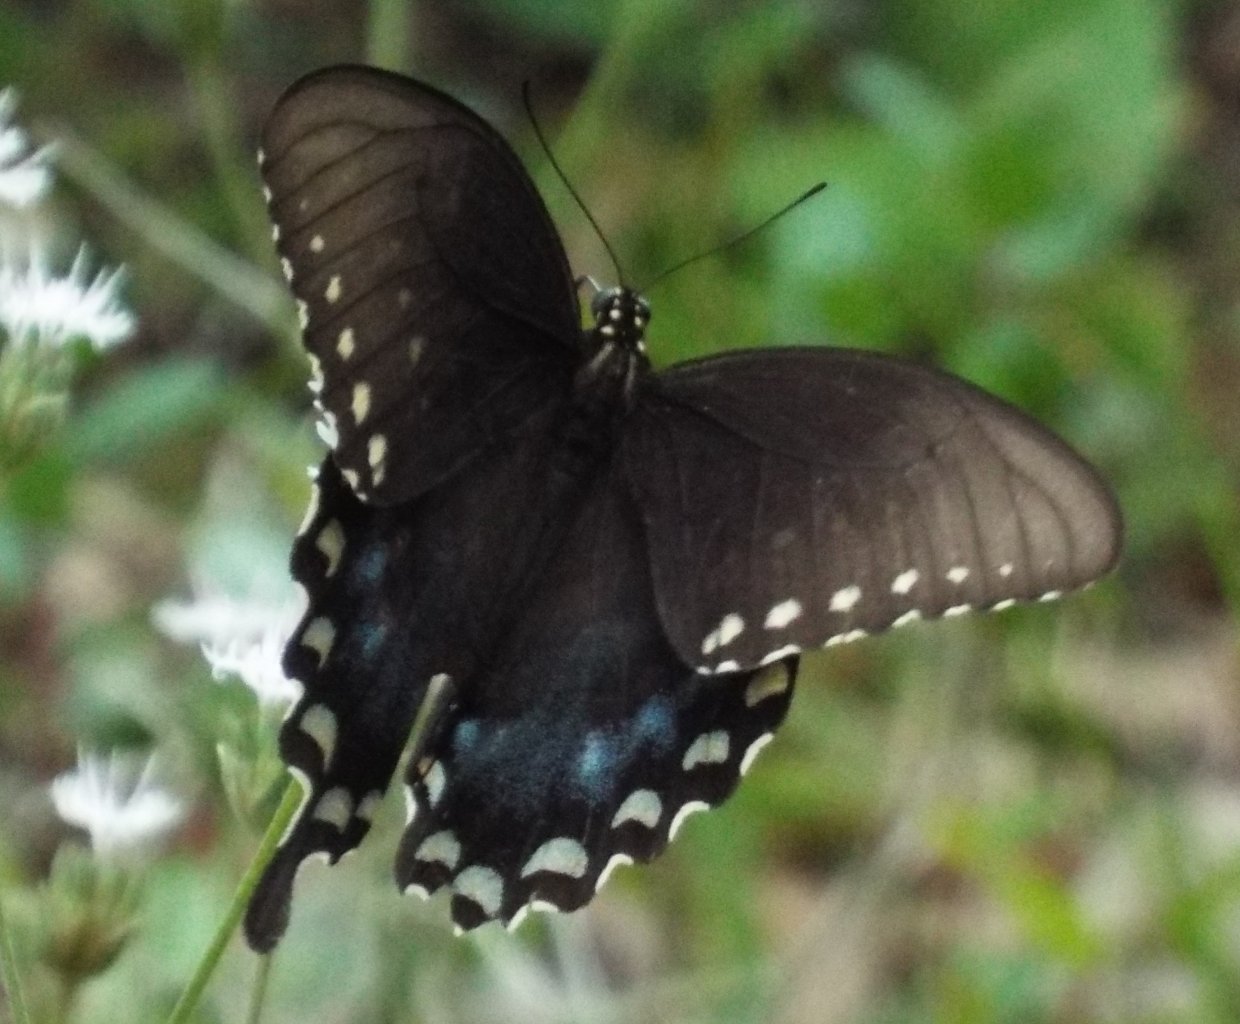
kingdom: Animalia
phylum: Arthropoda
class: Insecta
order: Lepidoptera
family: Papilionidae
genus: Pterourus
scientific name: Pterourus troilus
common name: Spicebush Swallowtail
